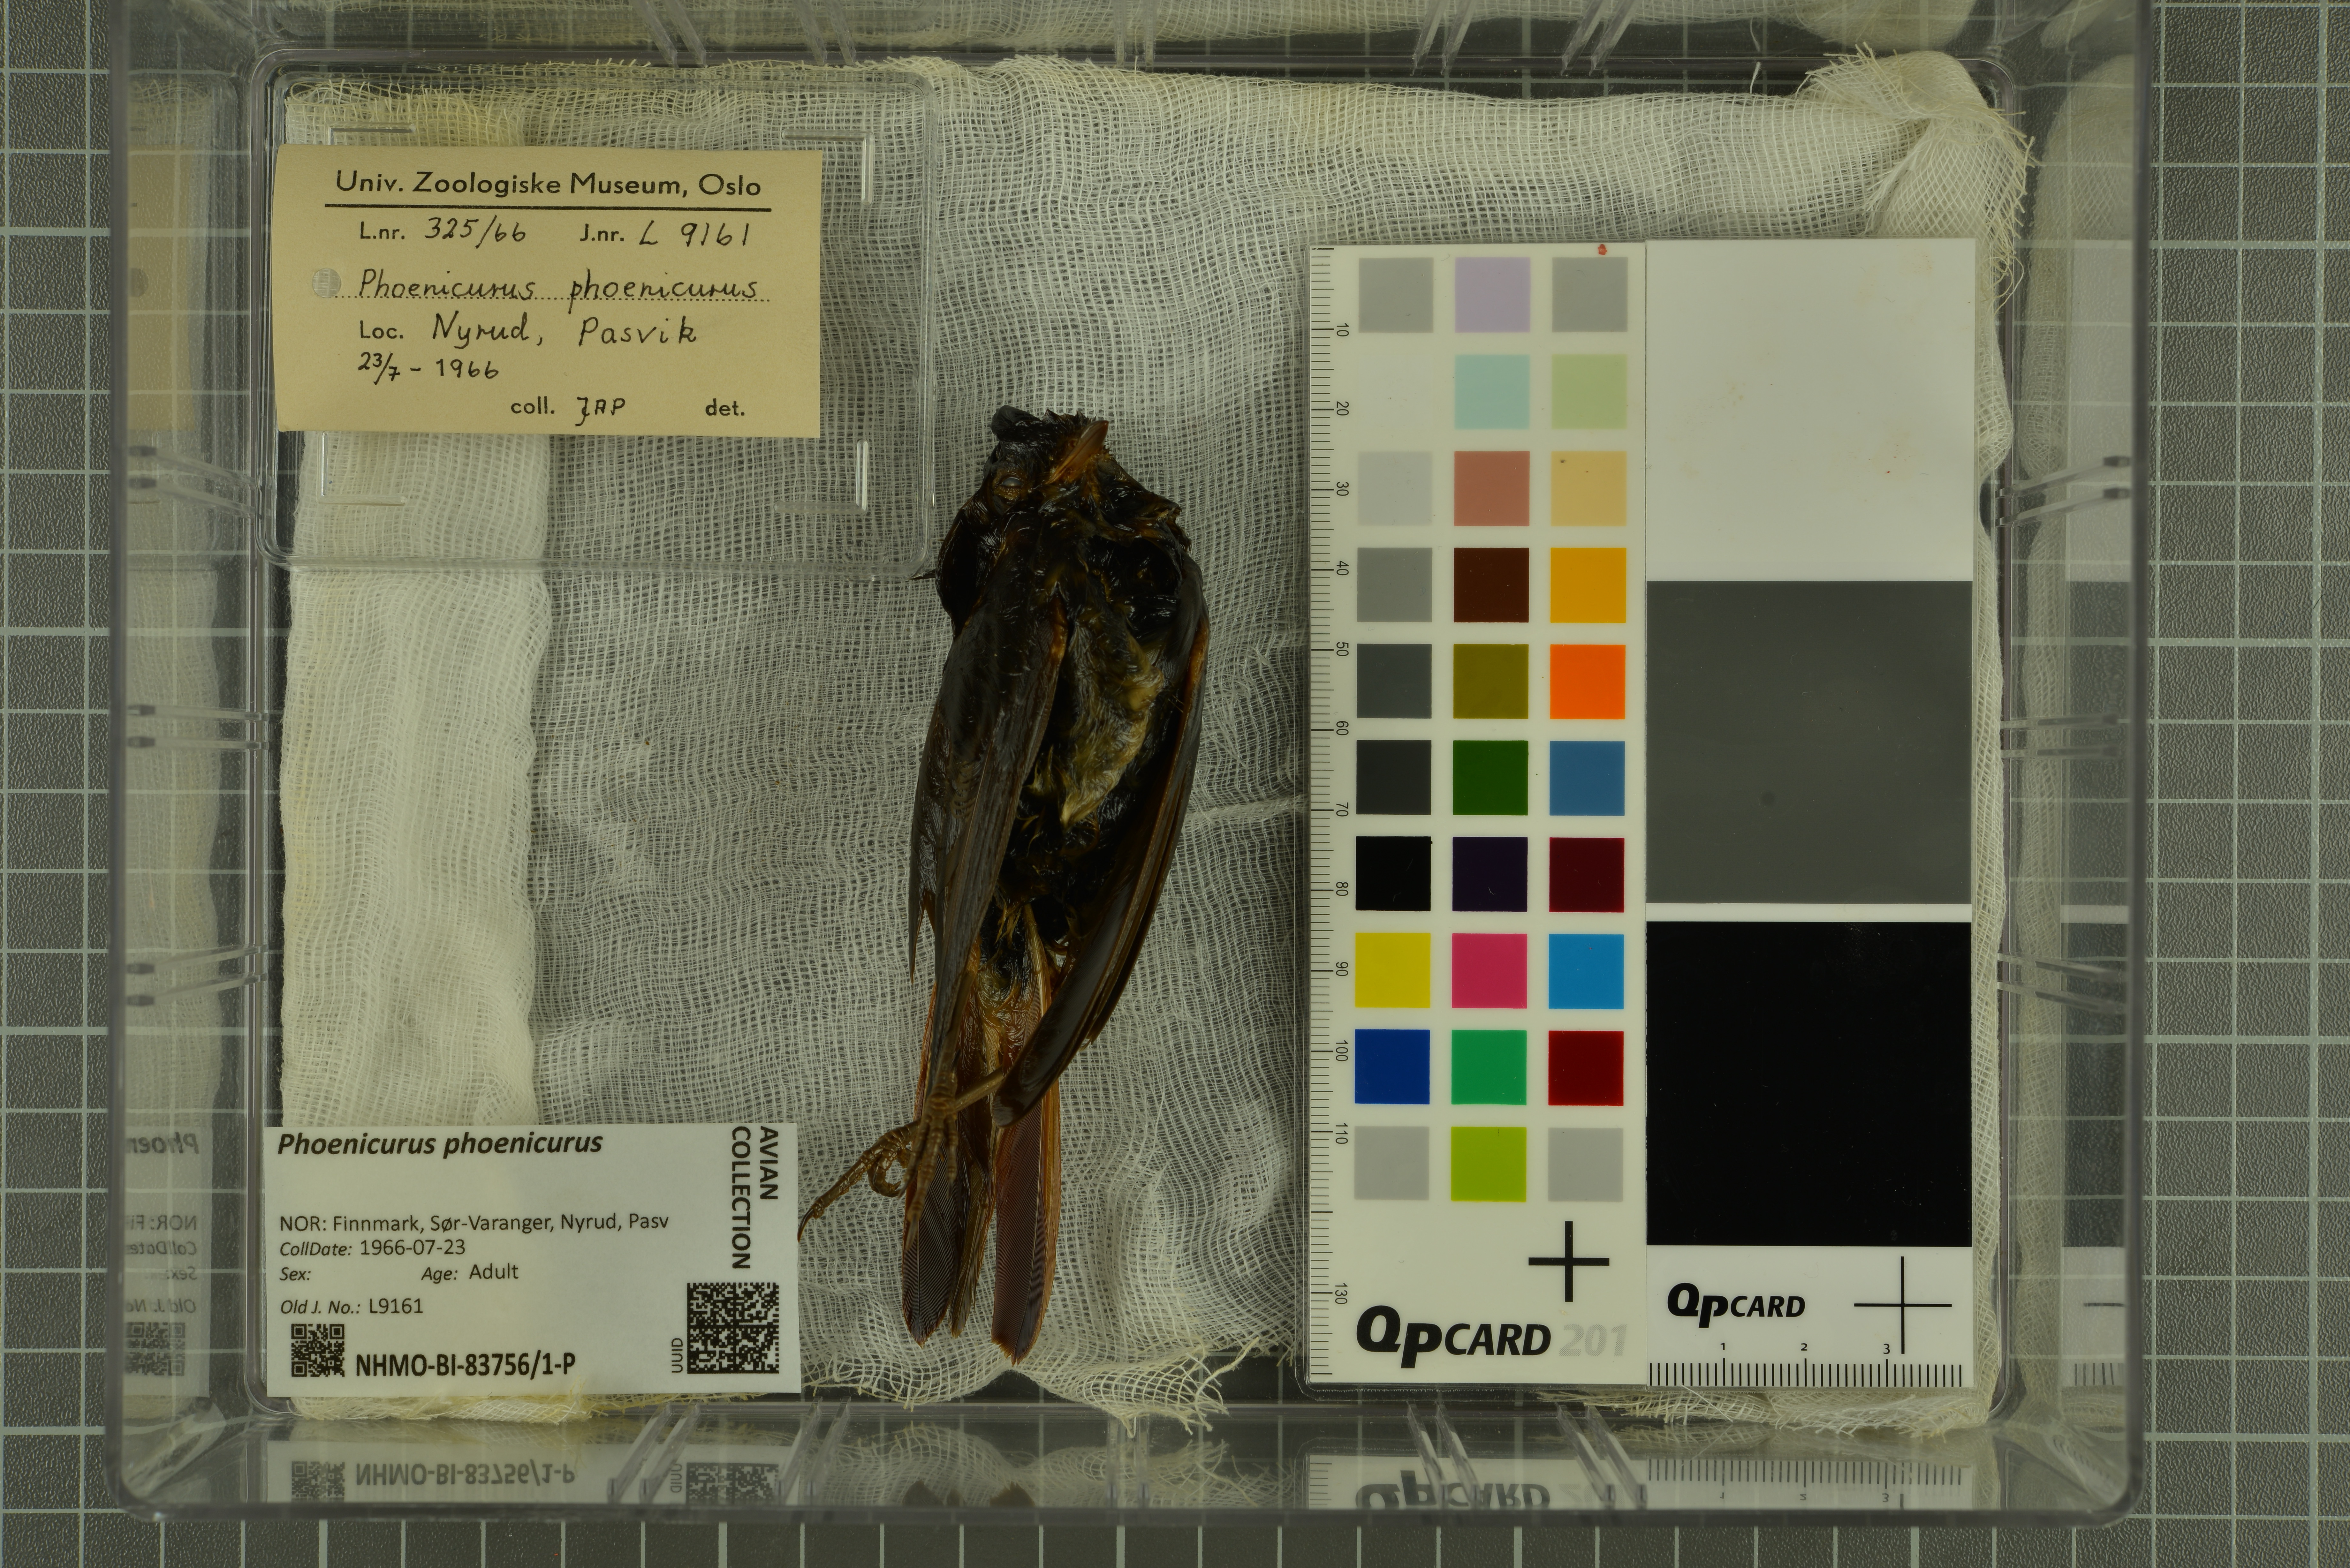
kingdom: Animalia
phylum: Chordata
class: Aves
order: Passeriformes
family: Muscicapidae
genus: Phoenicurus
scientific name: Phoenicurus phoenicurus
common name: Common redstart
